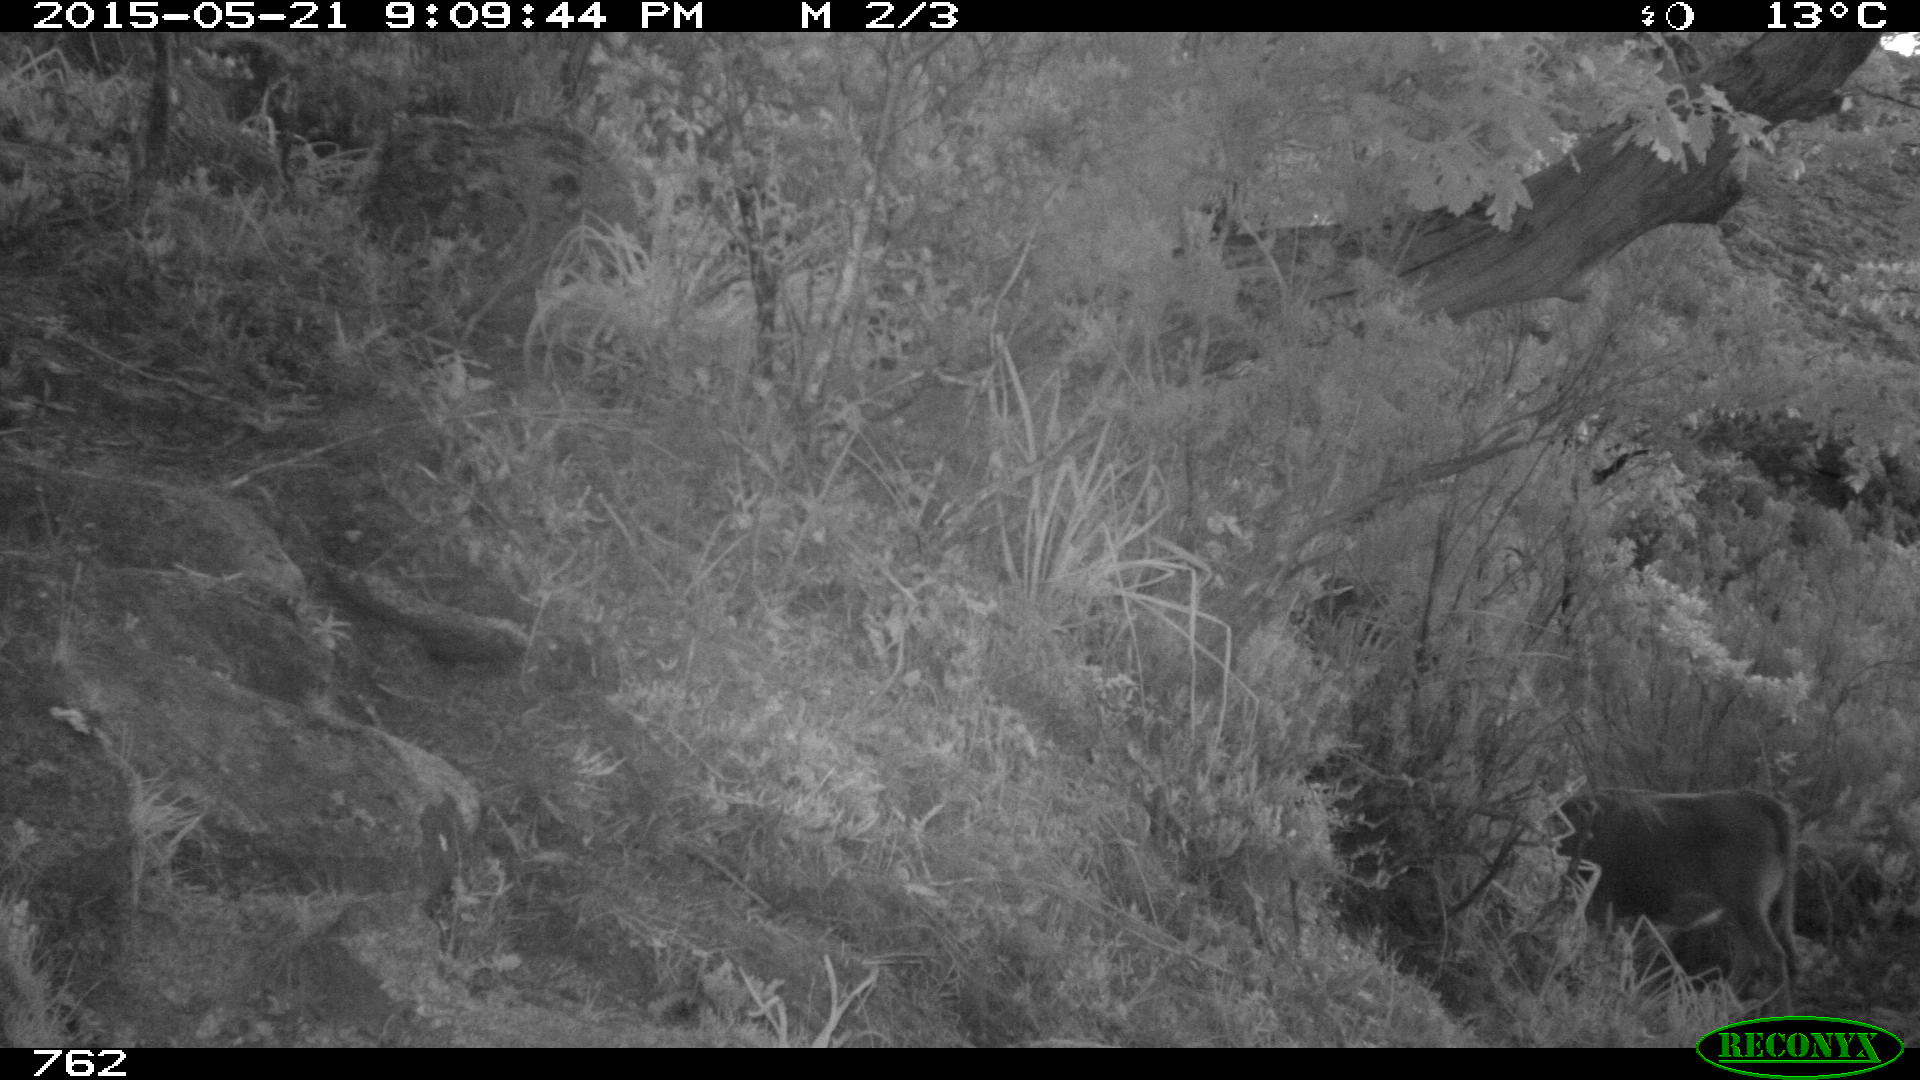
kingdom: Animalia
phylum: Chordata
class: Mammalia
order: Artiodactyla
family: Bovidae
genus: Bos
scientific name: Bos taurus
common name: Domesticated cattle
